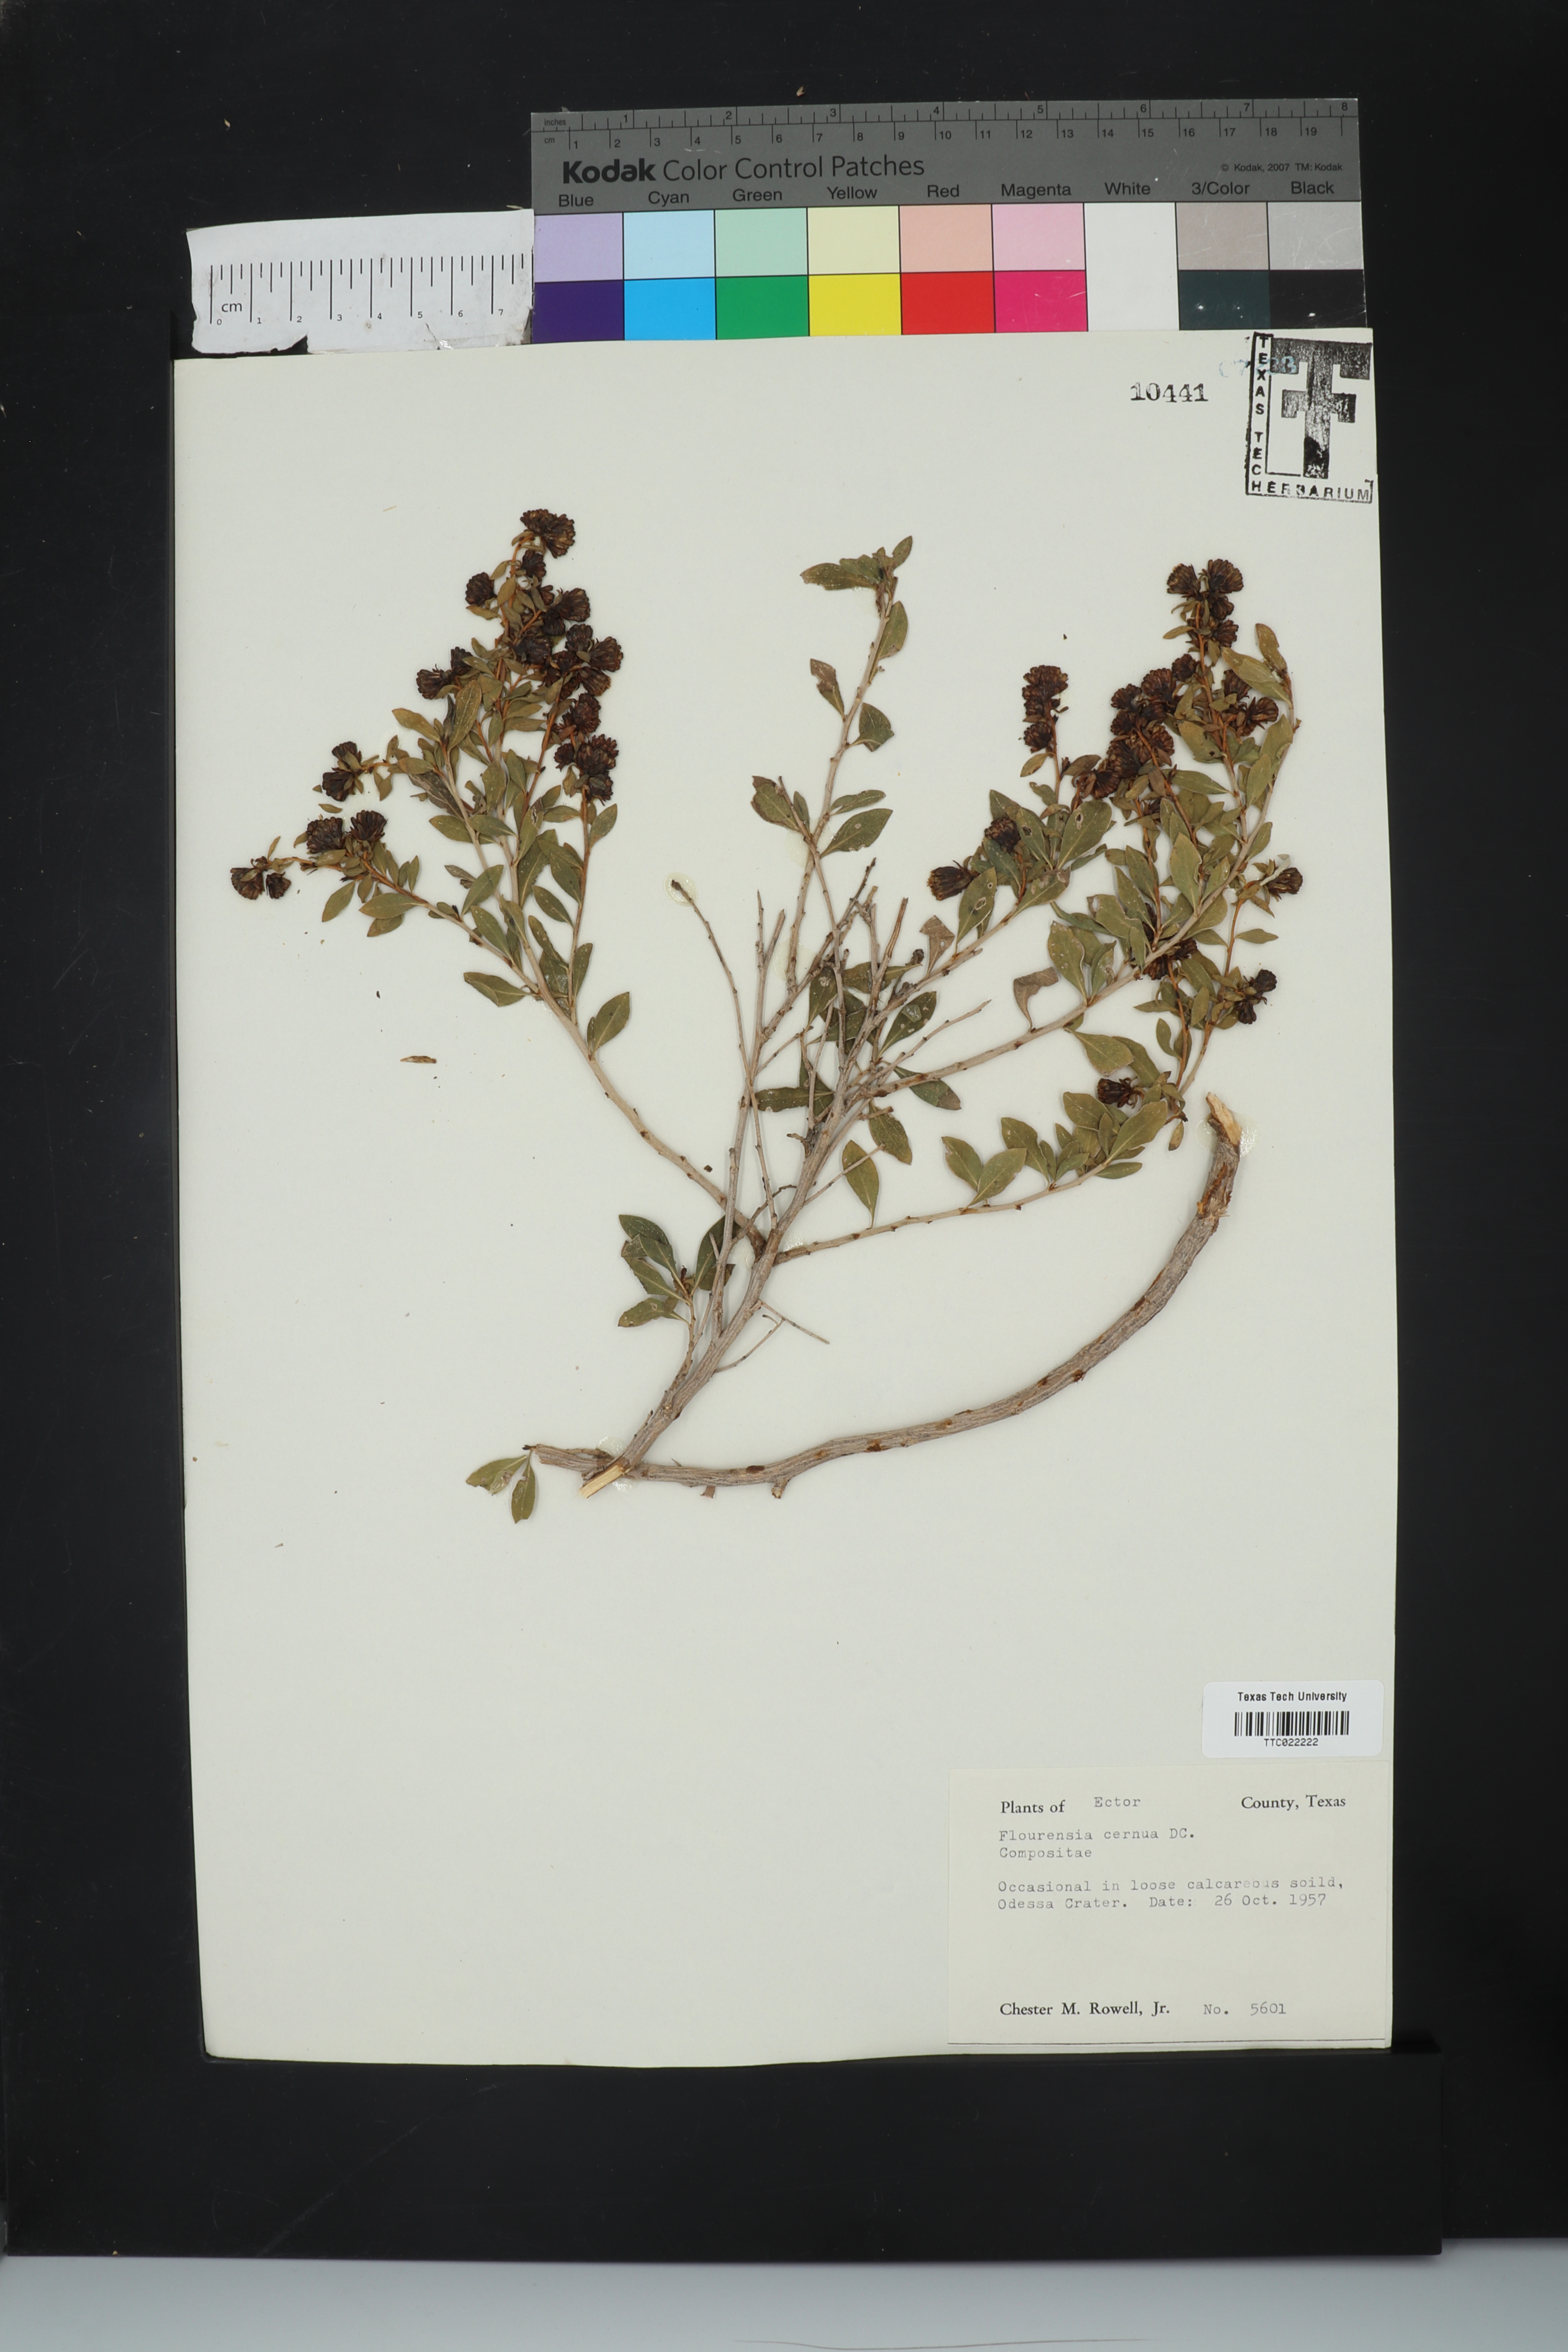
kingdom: Plantae
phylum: Tracheophyta
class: Magnoliopsida
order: Asterales
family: Asteraceae
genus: Flourensia
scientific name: Flourensia cernua
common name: Varnishbush
